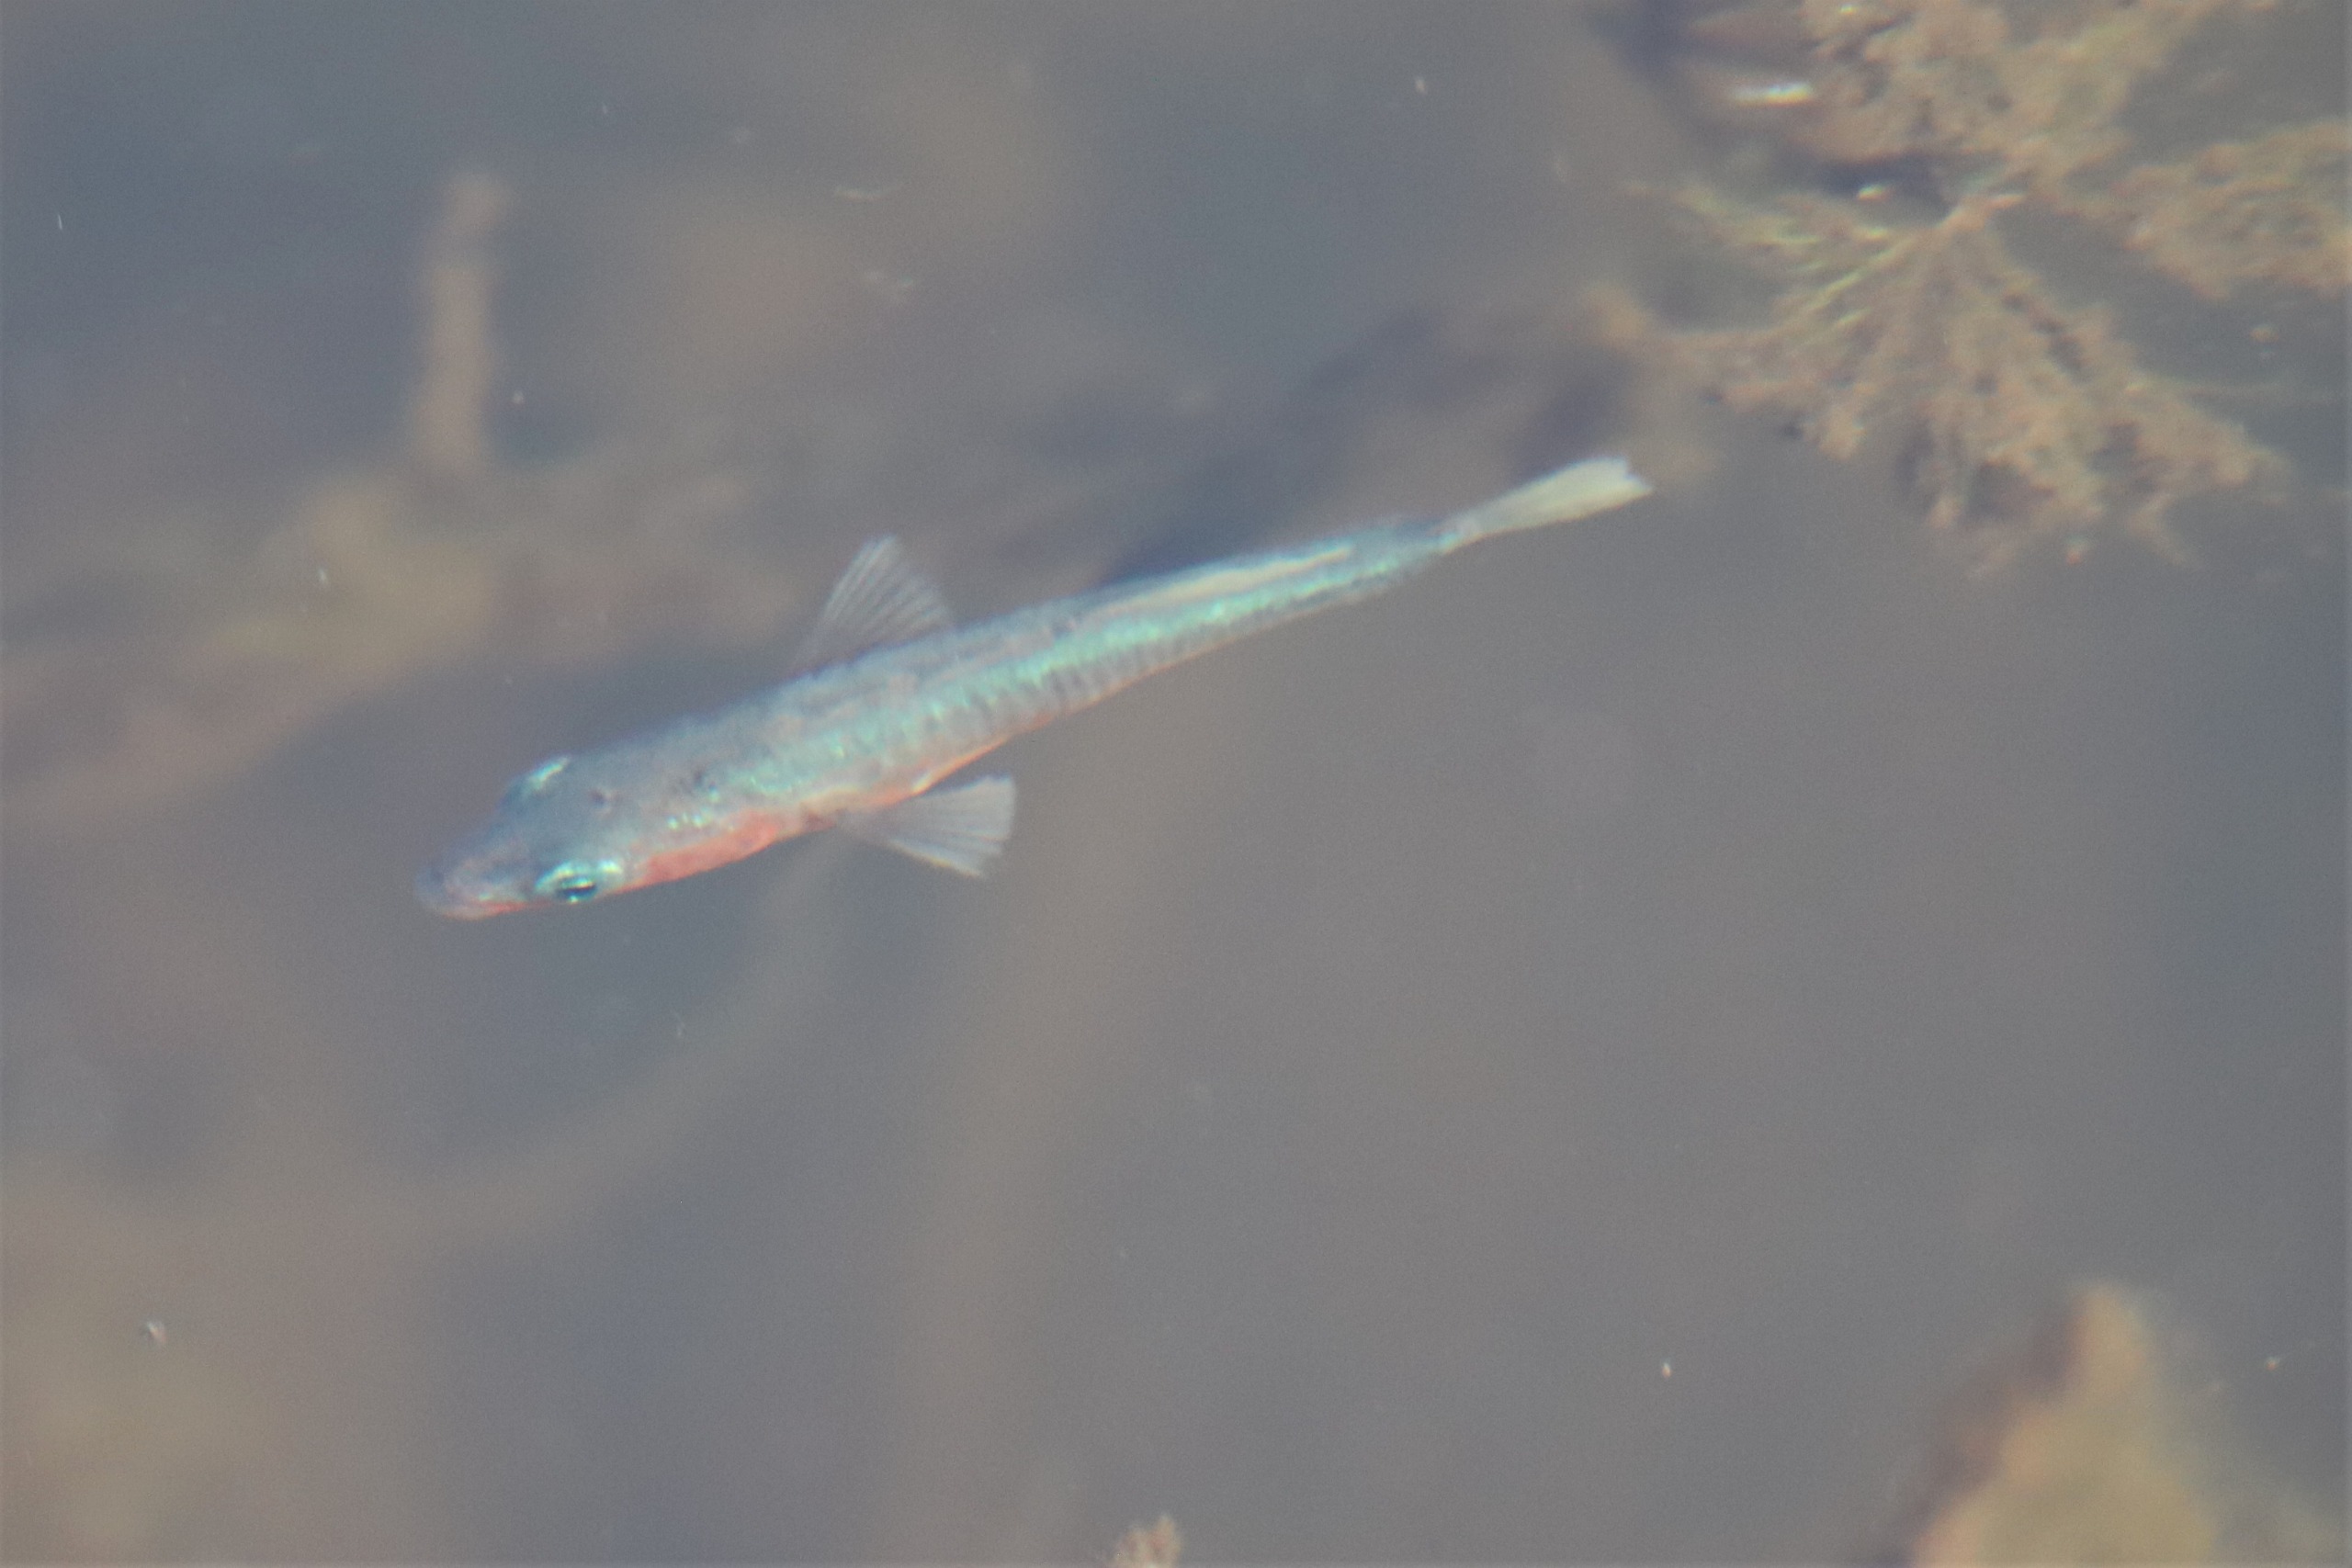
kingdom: Animalia
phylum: Chordata
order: Gasterosteiformes
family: Gasterosteidae
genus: Gasterosteus
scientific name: Gasterosteus aculeatus
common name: Trepigget hundestejle
